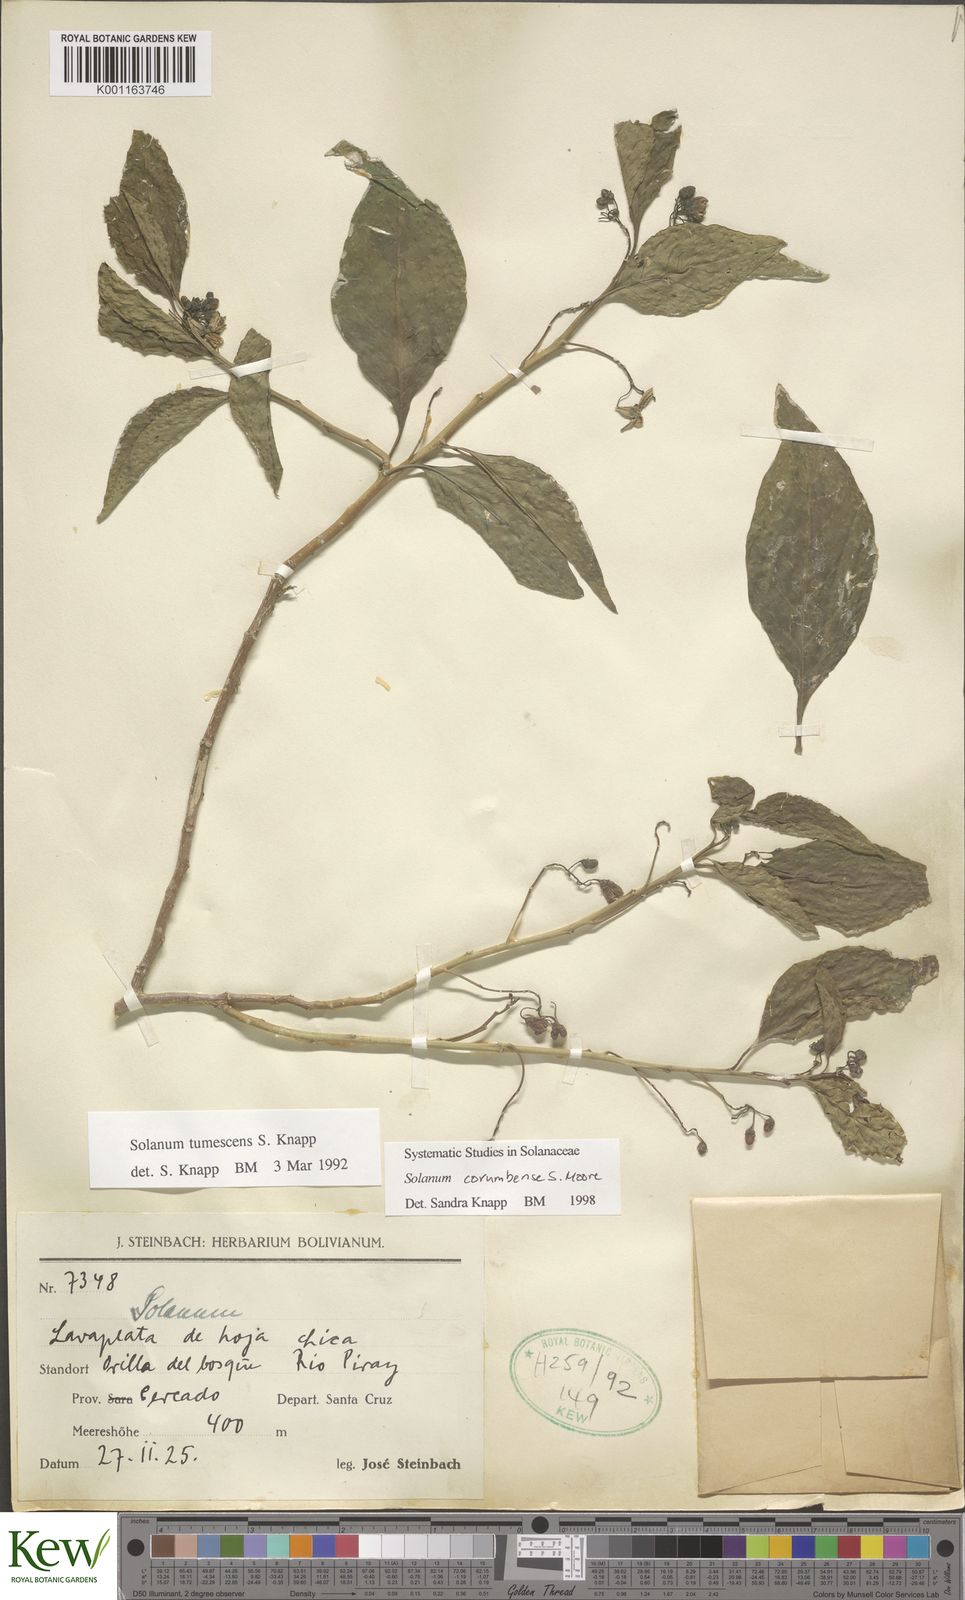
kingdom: Plantae
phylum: Tracheophyta
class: Magnoliopsida
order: Solanales
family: Solanaceae
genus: Solanum
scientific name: Solanum corumbense
